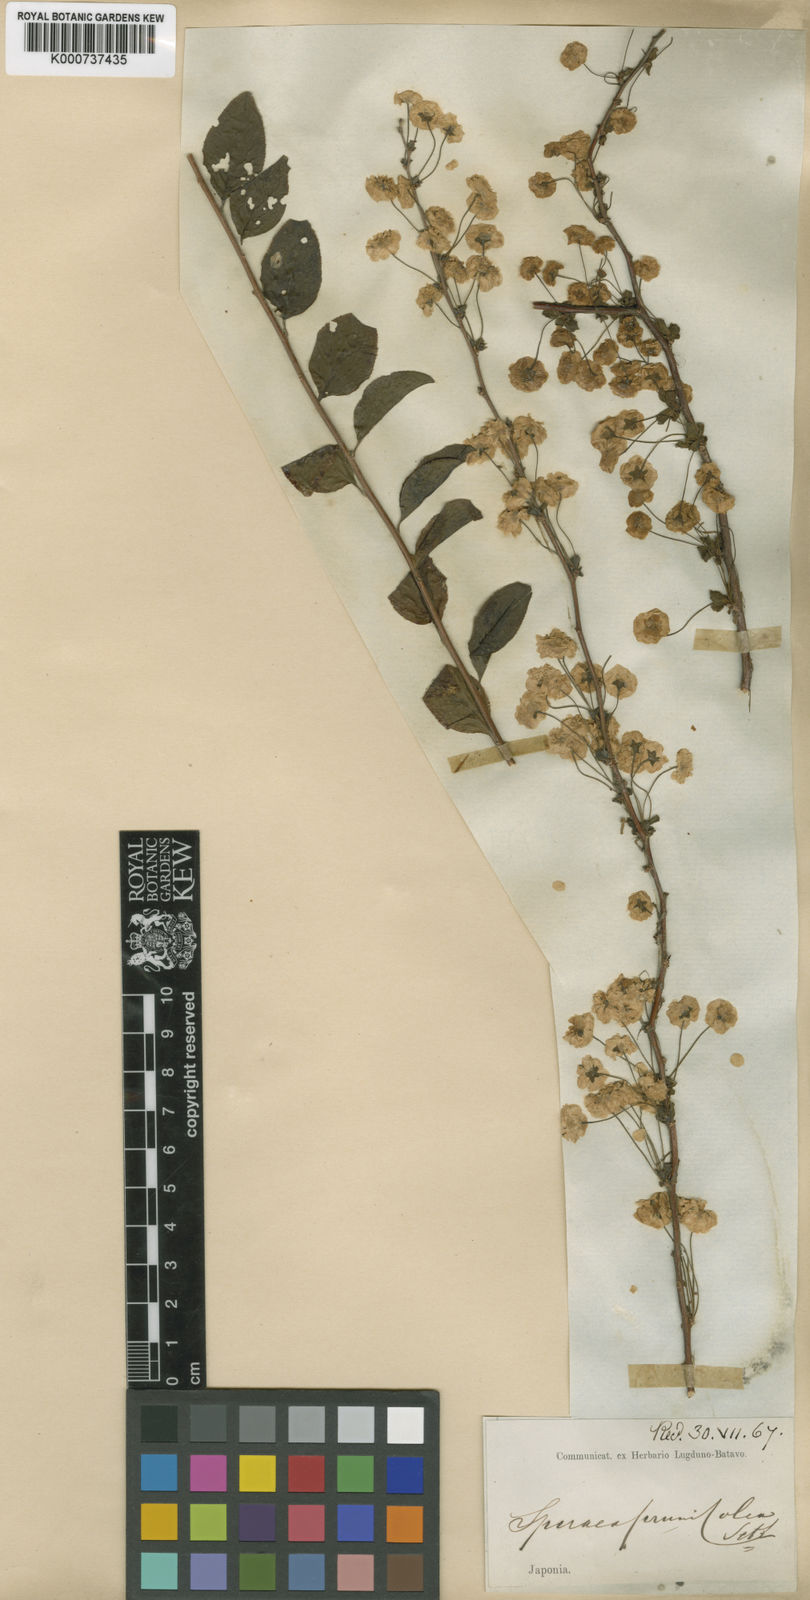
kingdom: Plantae
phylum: Tracheophyta
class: Magnoliopsida
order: Rosales
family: Rosaceae
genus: Spiraea
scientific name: Spiraea prunifolia
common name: Bridal-wreath spiraea
